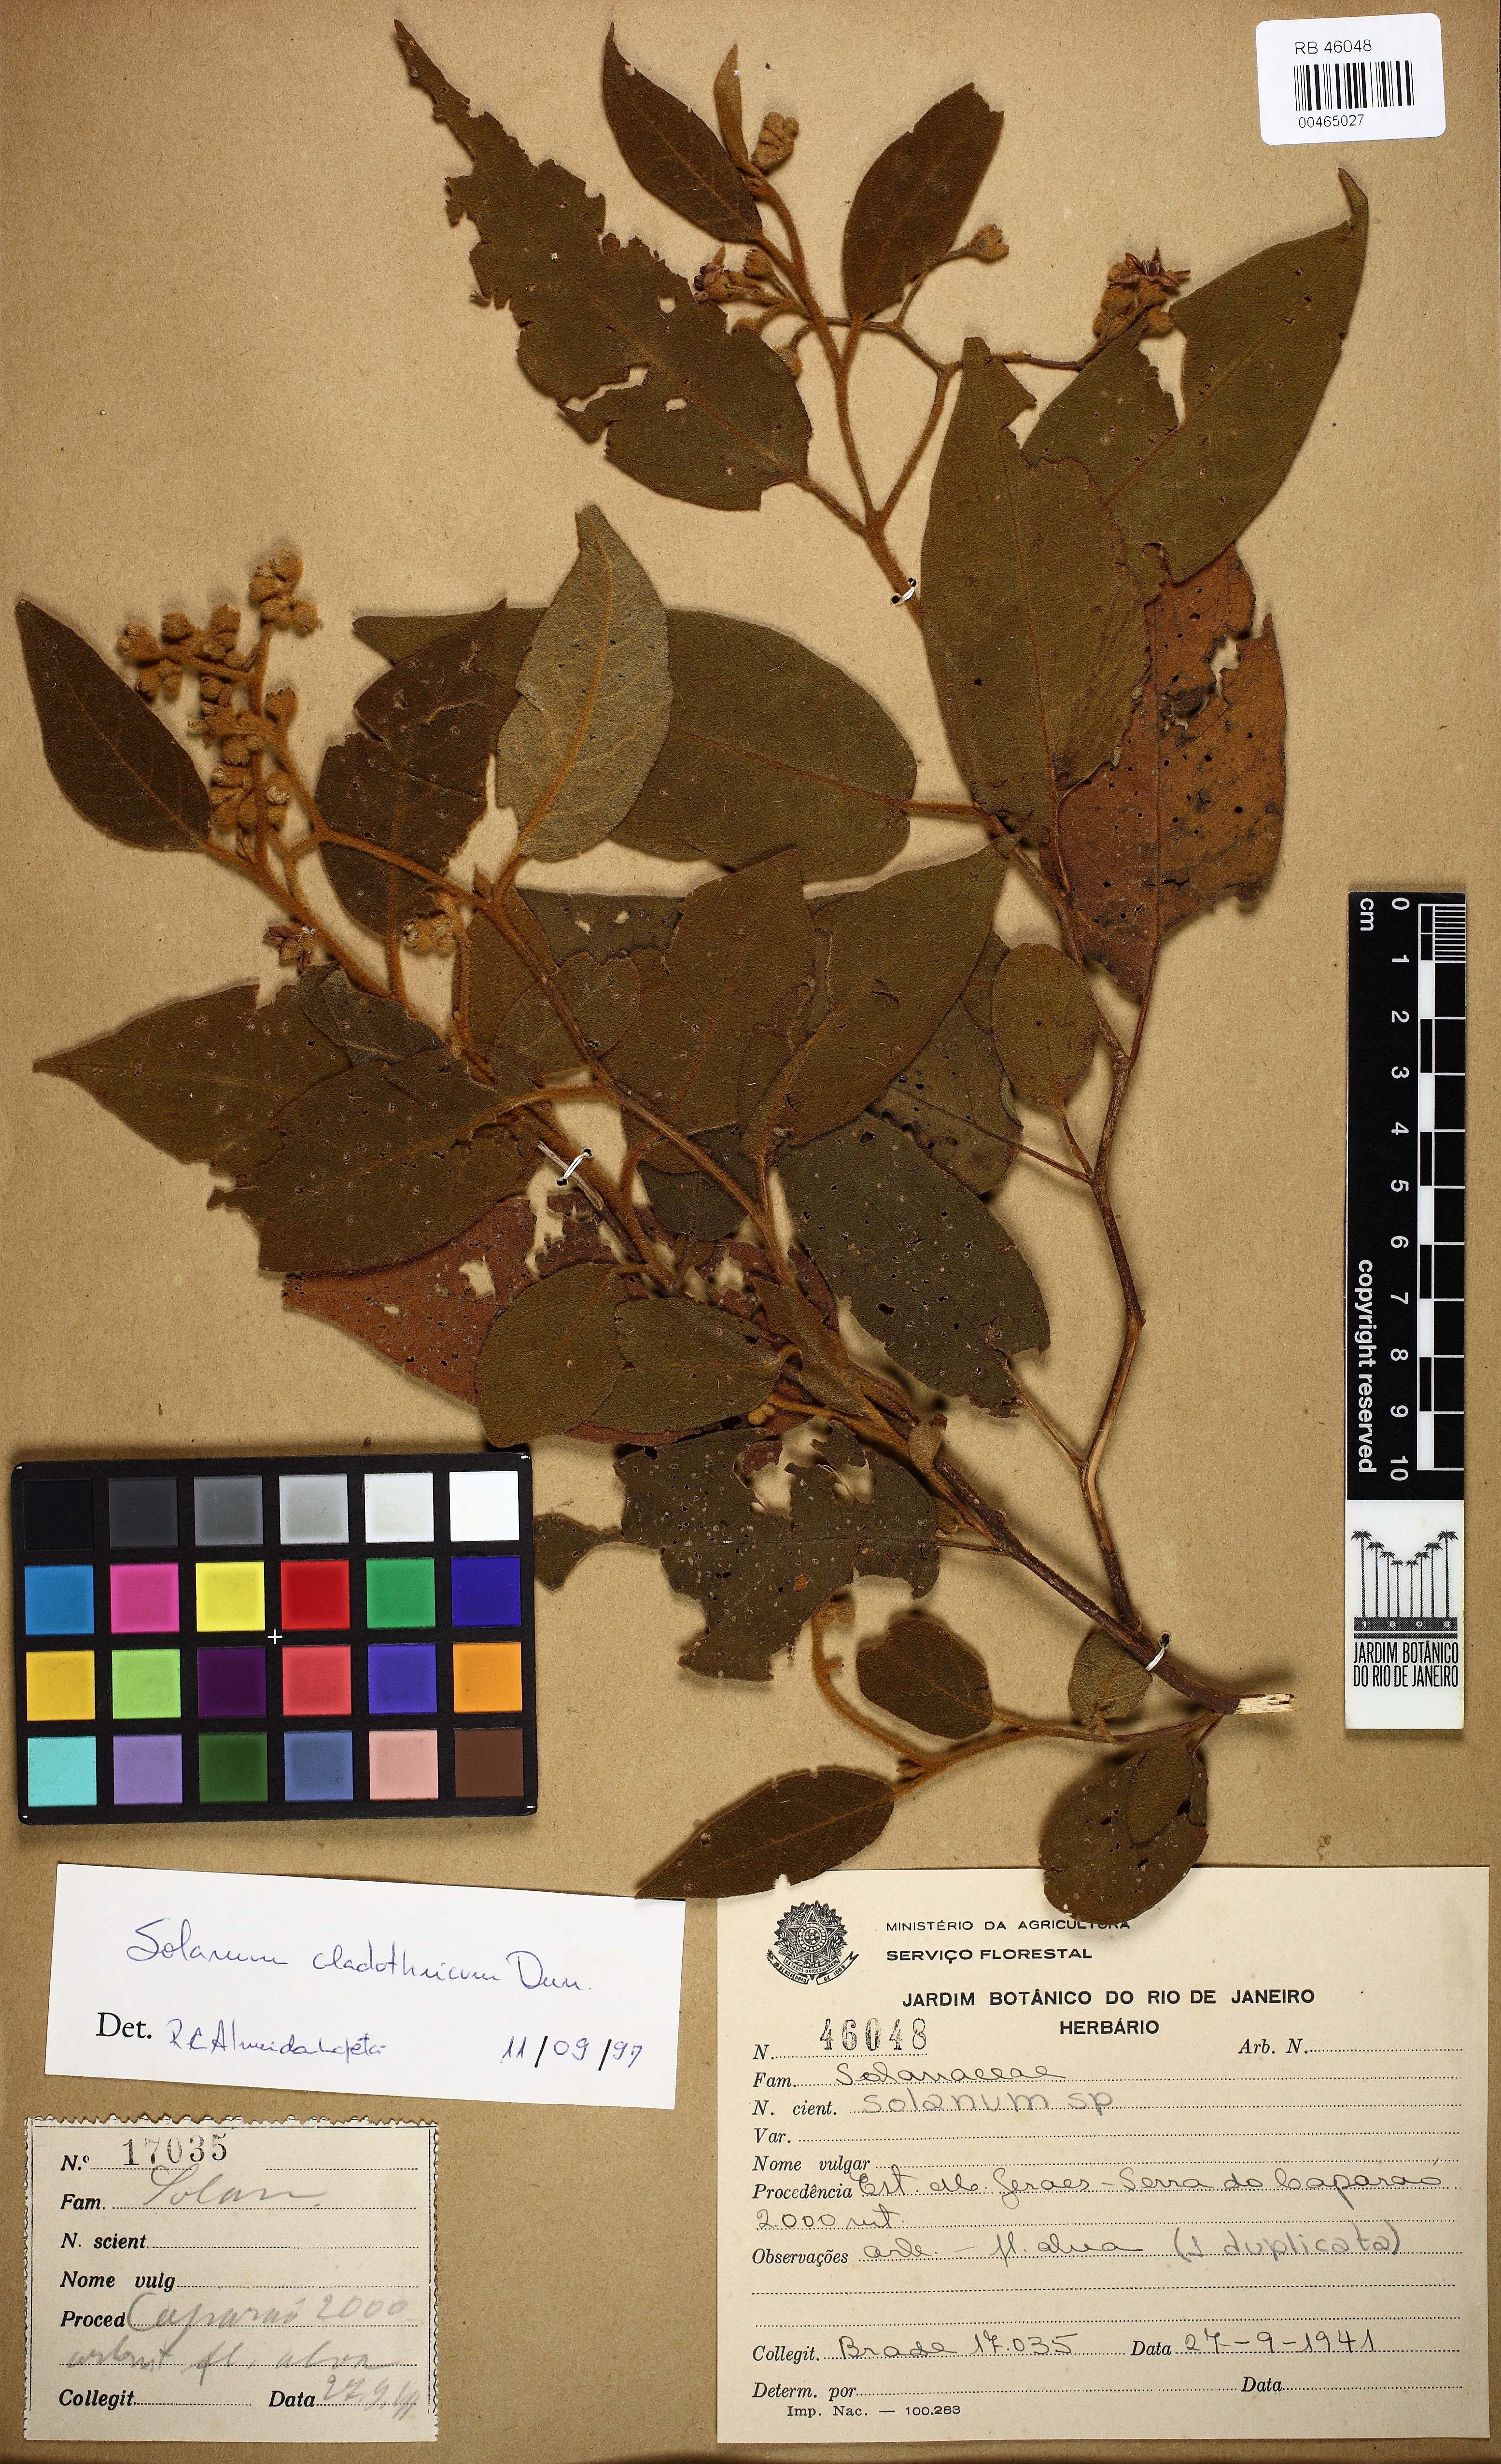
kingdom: Plantae
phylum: Tracheophyta
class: Magnoliopsida
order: Solanales
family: Solanaceae
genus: Solanum
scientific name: Solanum jussiaei
